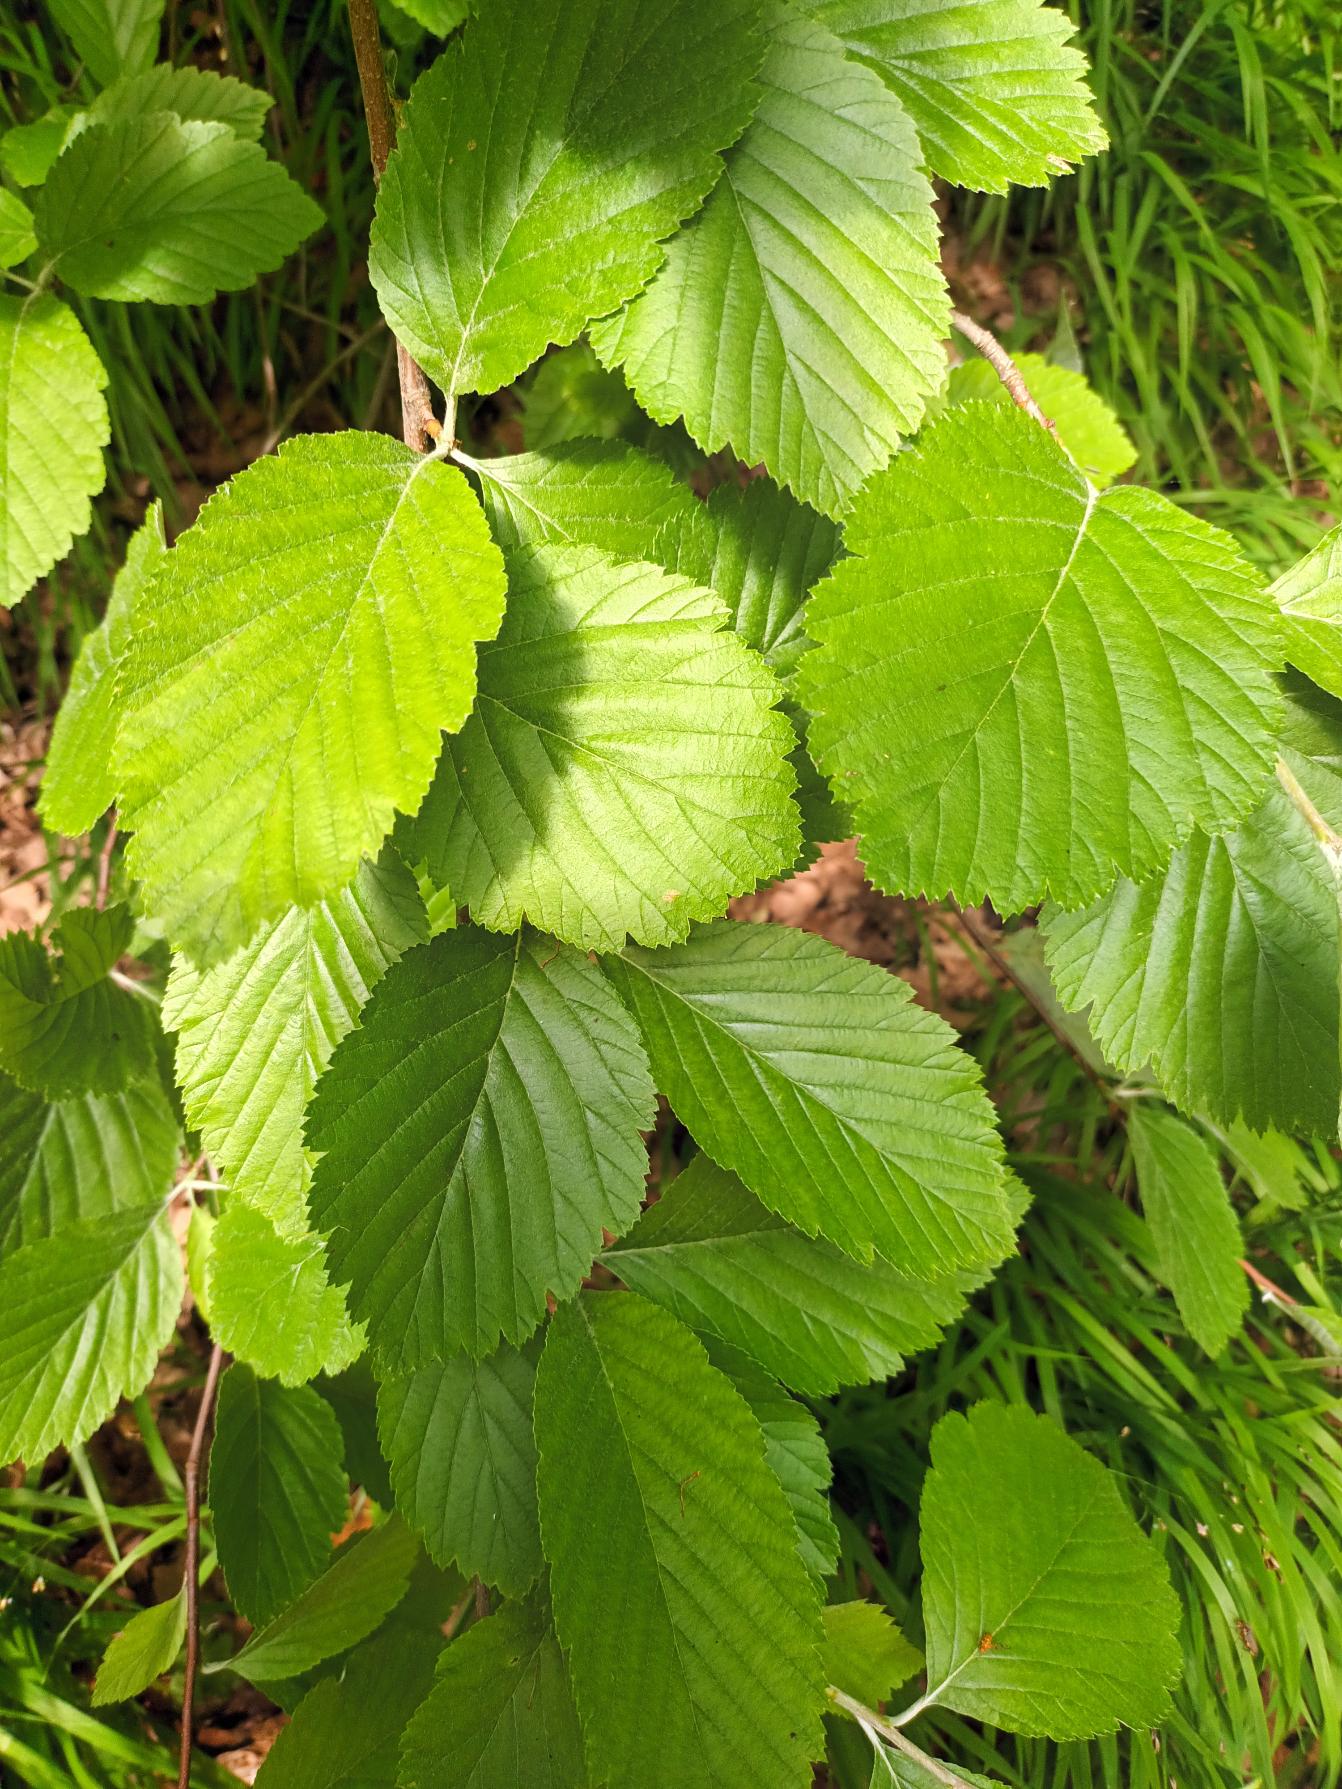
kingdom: Plantae
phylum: Tracheophyta
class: Magnoliopsida
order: Rosales
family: Rosaceae
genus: Aria
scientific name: Aria edulis
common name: Aksel-røn
